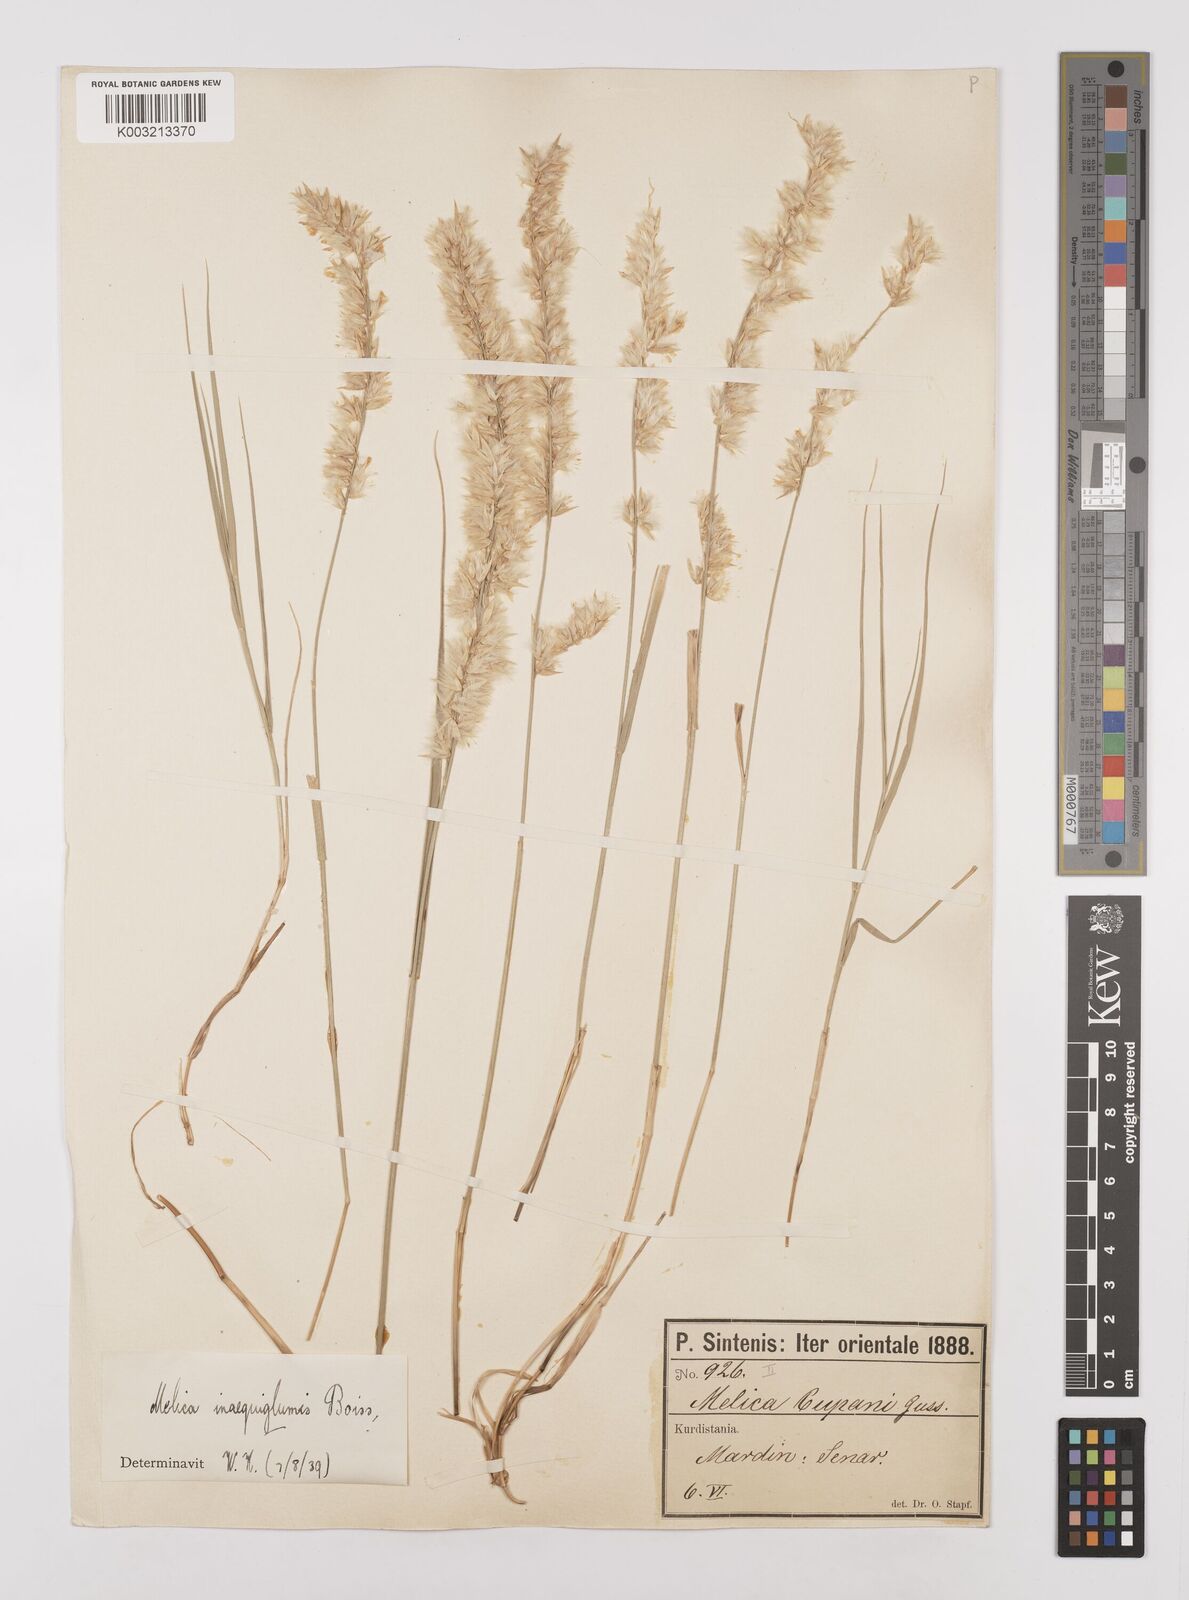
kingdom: Plantae
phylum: Tracheophyta
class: Liliopsida
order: Poales
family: Poaceae
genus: Melica
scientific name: Melica persica
